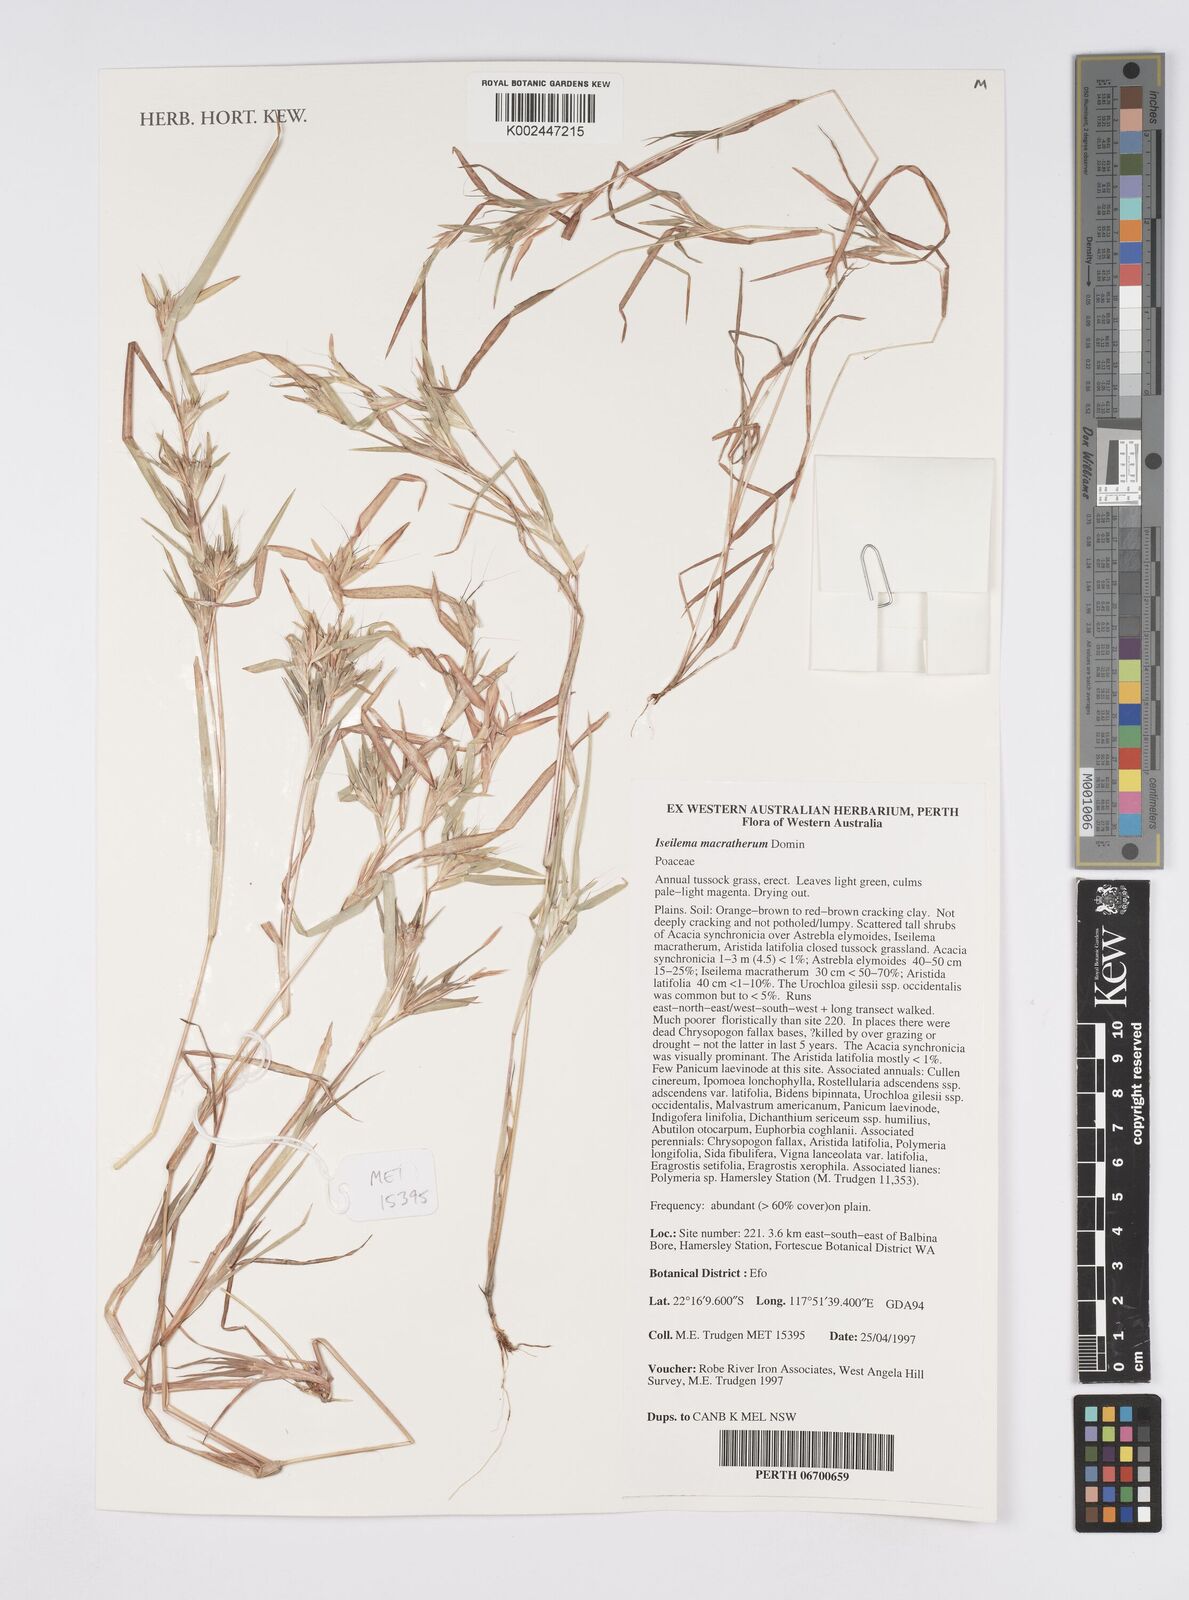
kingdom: Plantae
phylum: Tracheophyta
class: Liliopsida
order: Poales
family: Poaceae
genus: Iseilema
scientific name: Iseilema macratherum
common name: Bull flinders grass
